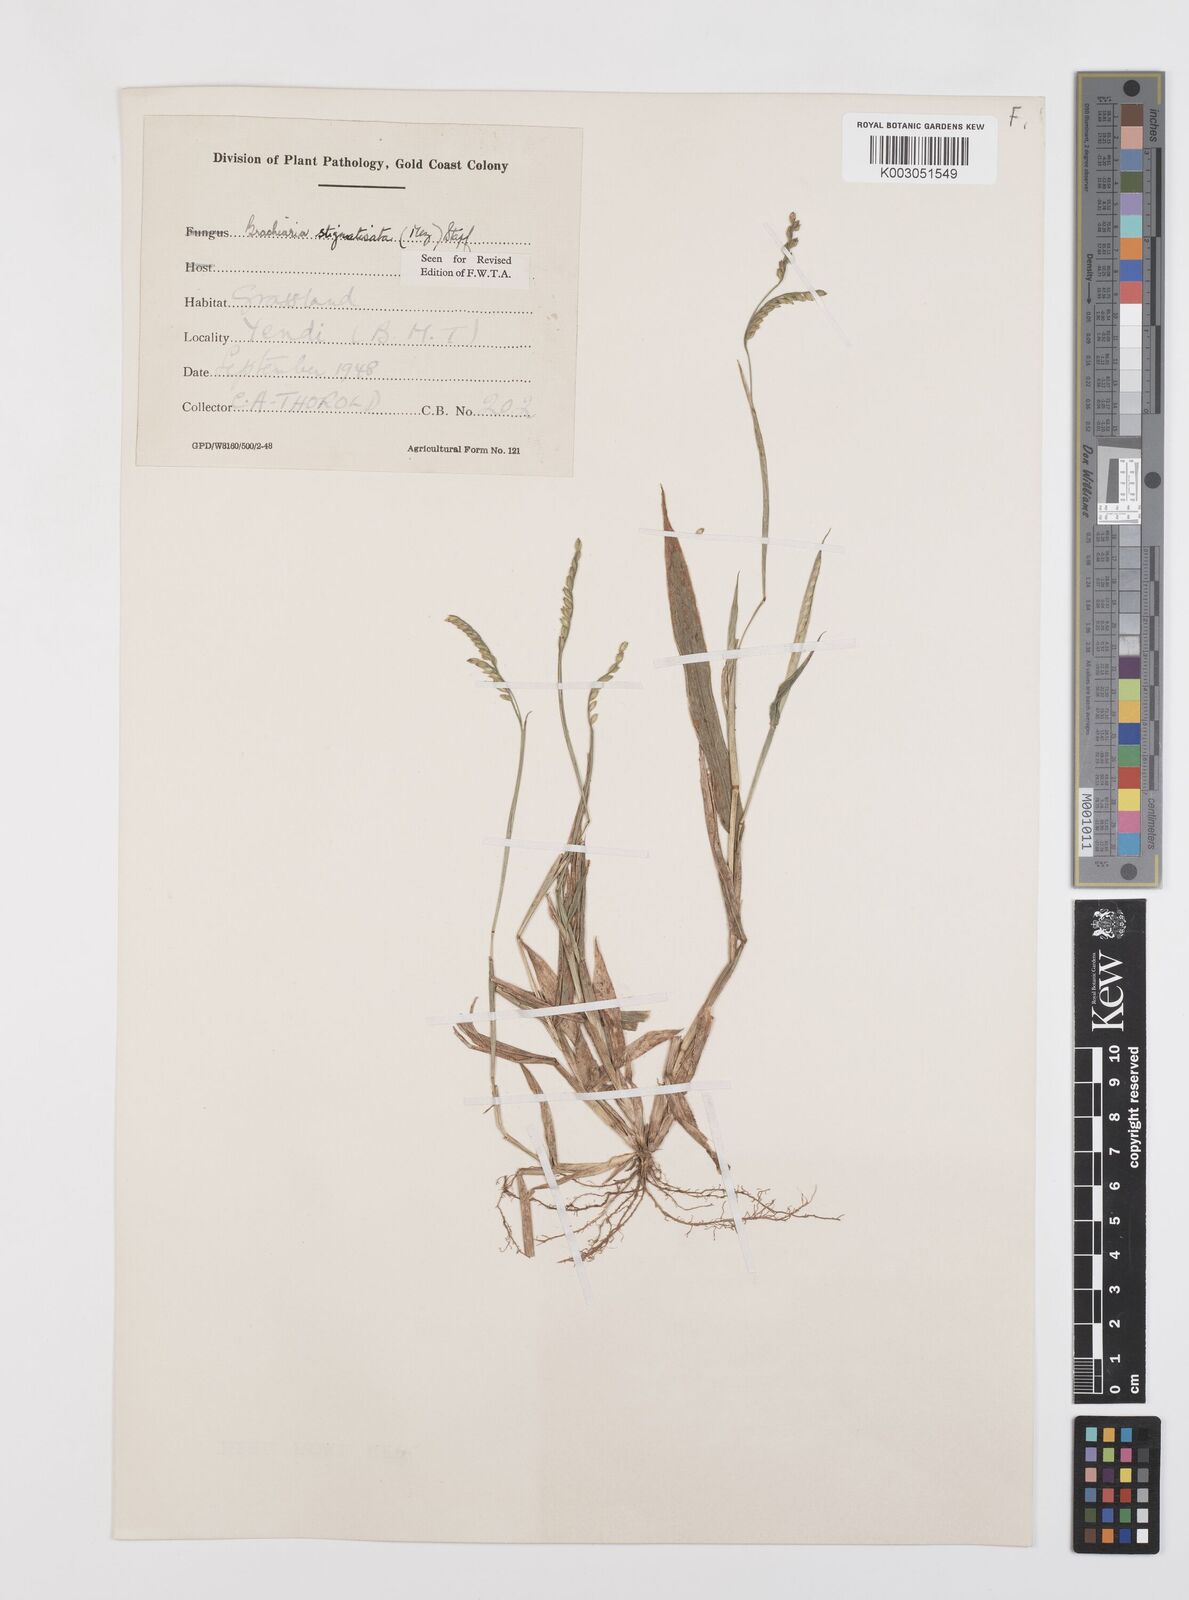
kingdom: Plantae
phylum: Tracheophyta
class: Liliopsida
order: Poales
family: Poaceae
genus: Urochloa
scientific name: Urochloa stigmatisata
